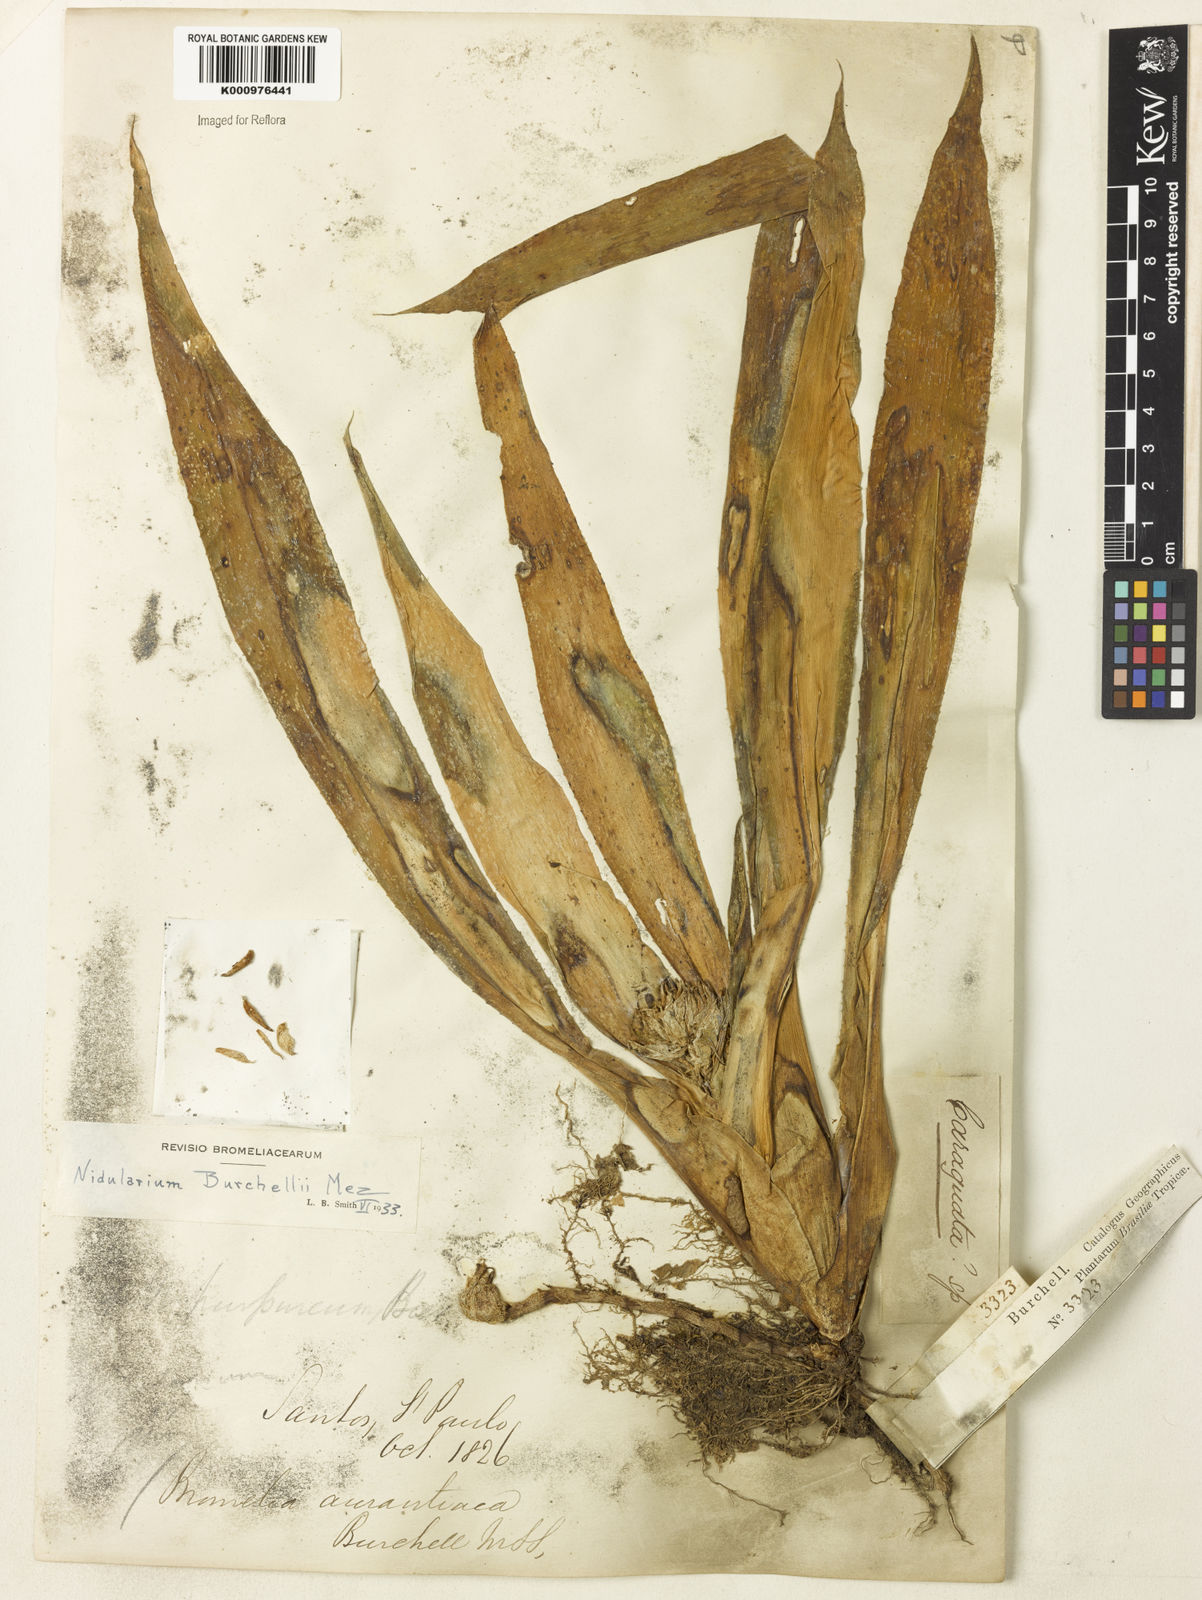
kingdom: Plantae
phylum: Tracheophyta
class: Liliopsida
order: Poales
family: Bromeliaceae
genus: Canistropsis
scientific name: Canistropsis burchellii
